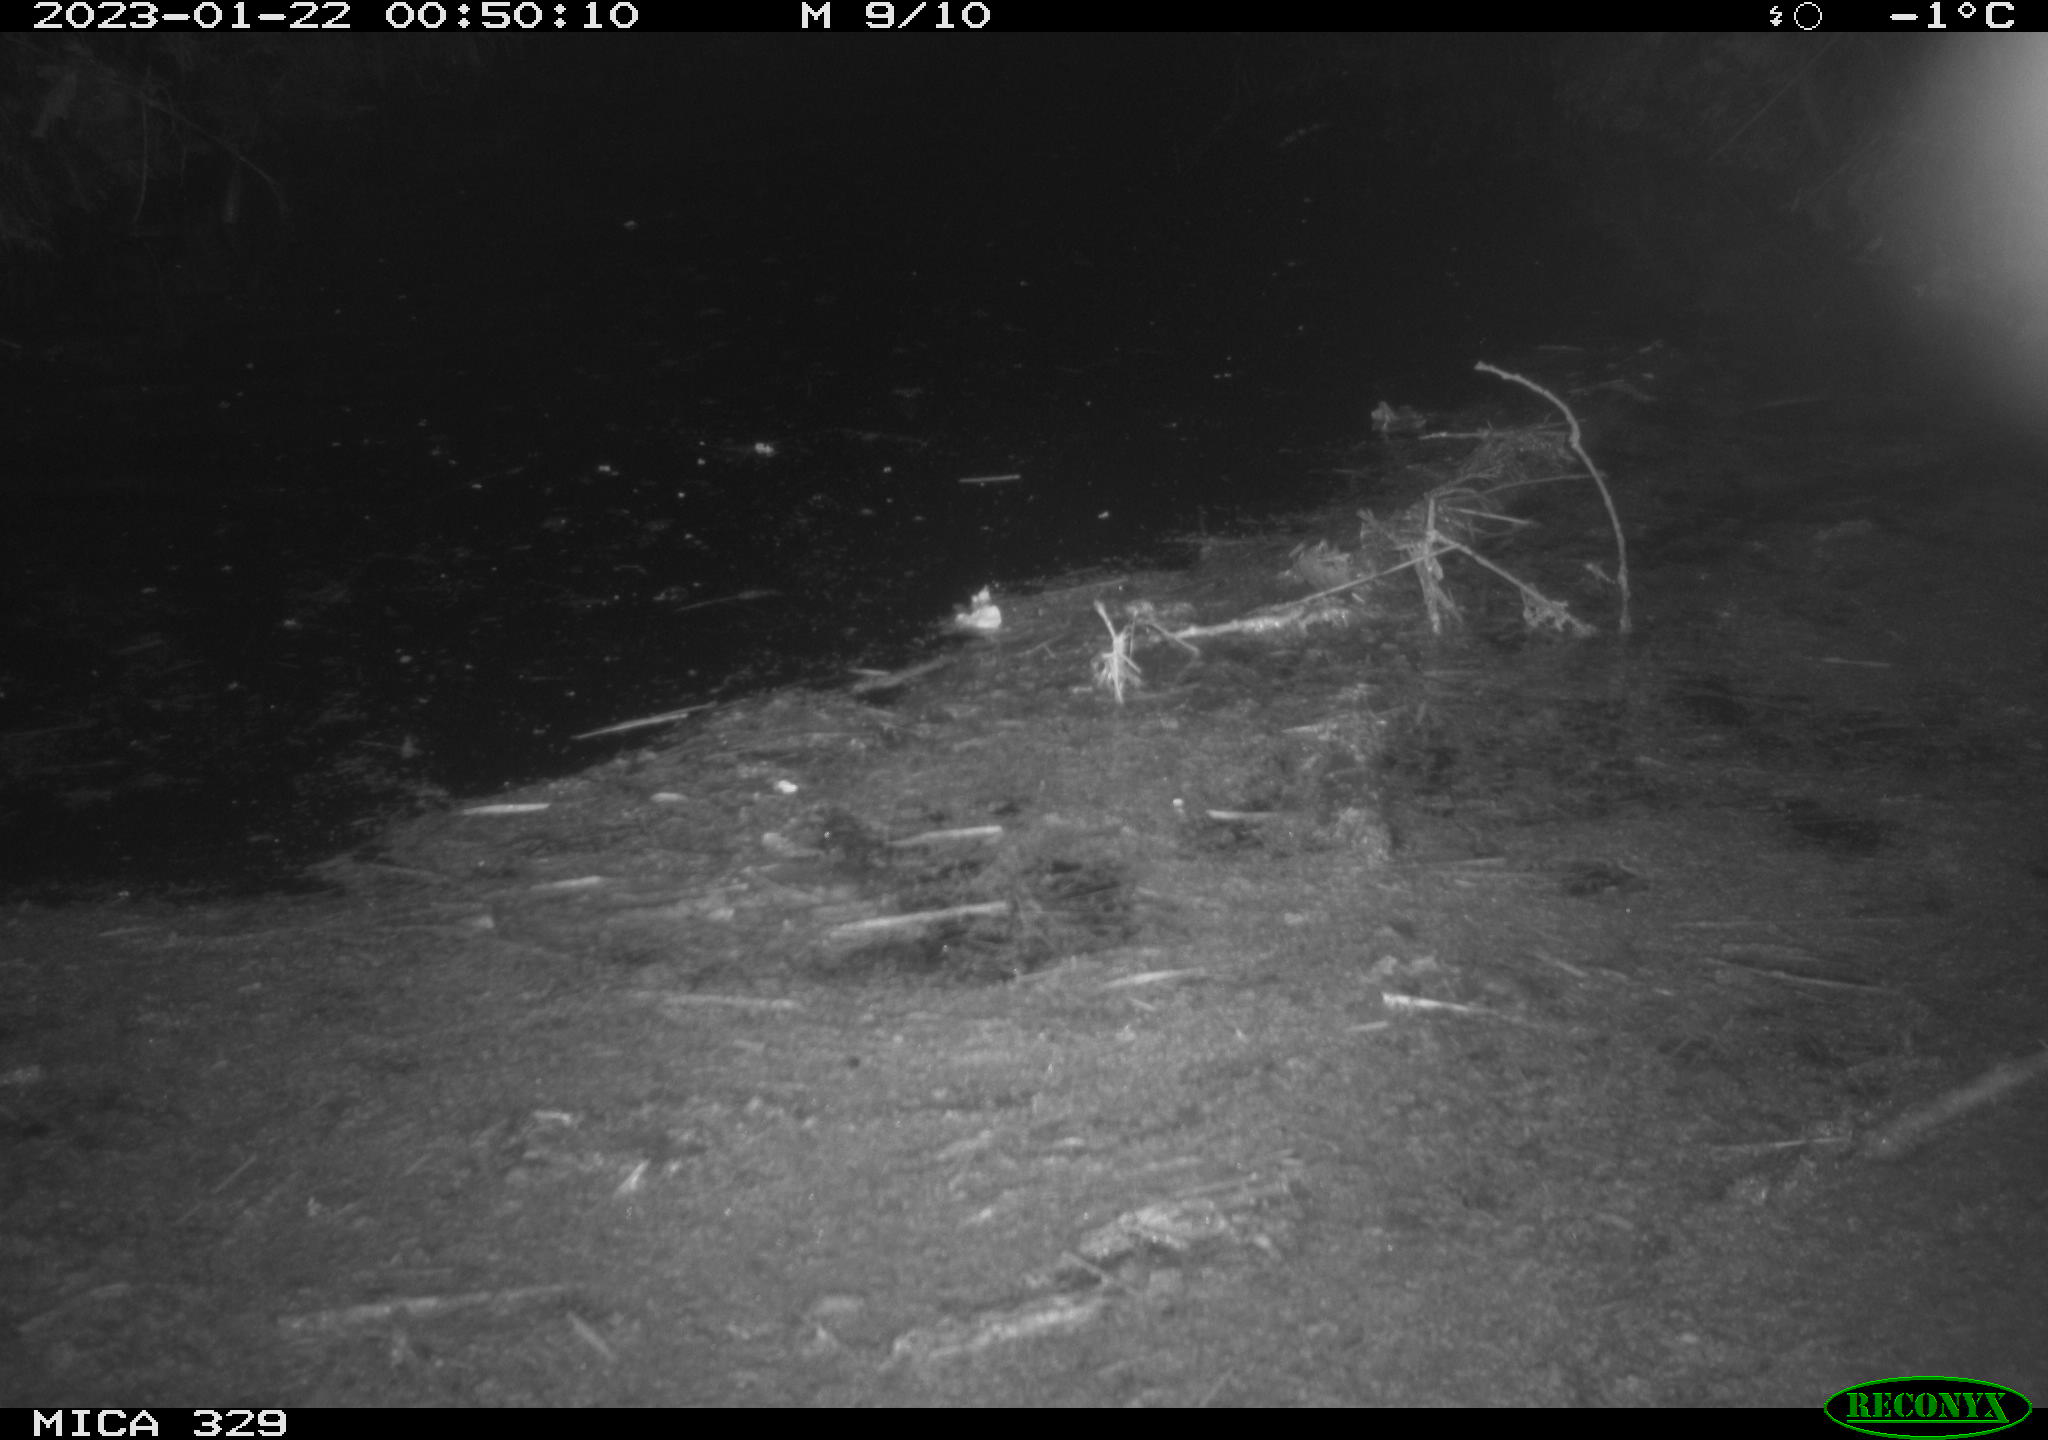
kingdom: Animalia
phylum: Chordata
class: Mammalia
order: Rodentia
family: Cricetidae
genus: Ondatra
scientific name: Ondatra zibethicus
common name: Muskrat
